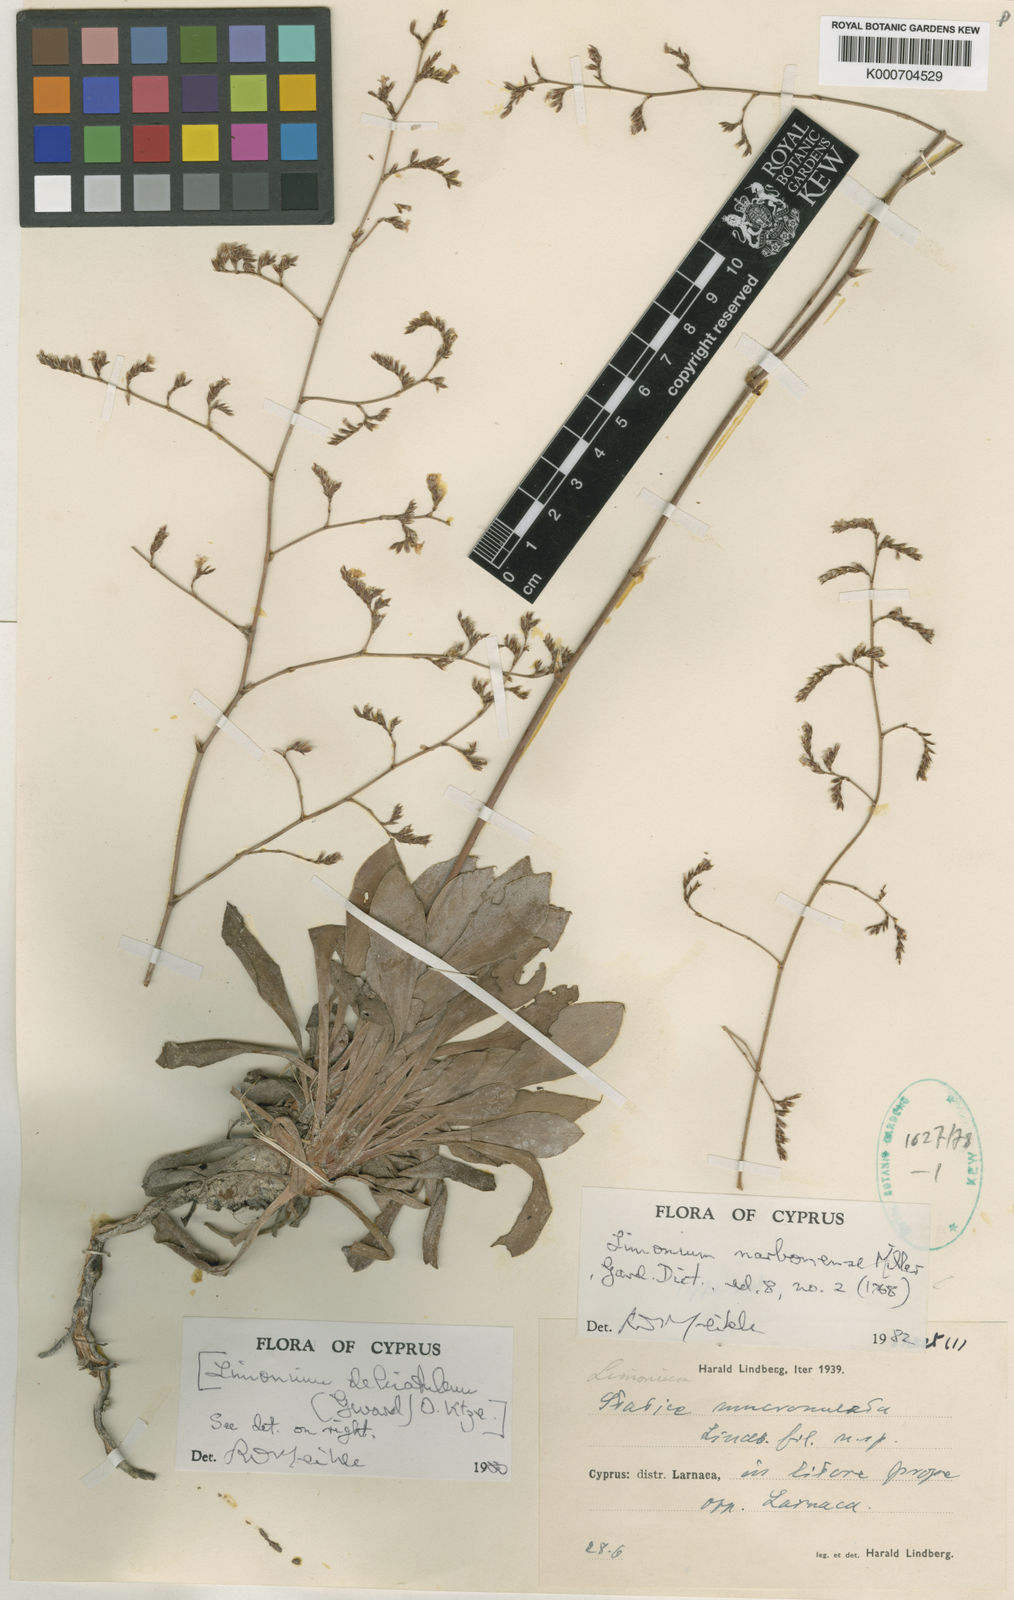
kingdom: Plantae
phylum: Tracheophyta
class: Magnoliopsida
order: Caryophyllales
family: Plumbaginaceae
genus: Limonium
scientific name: Limonium narbonense
